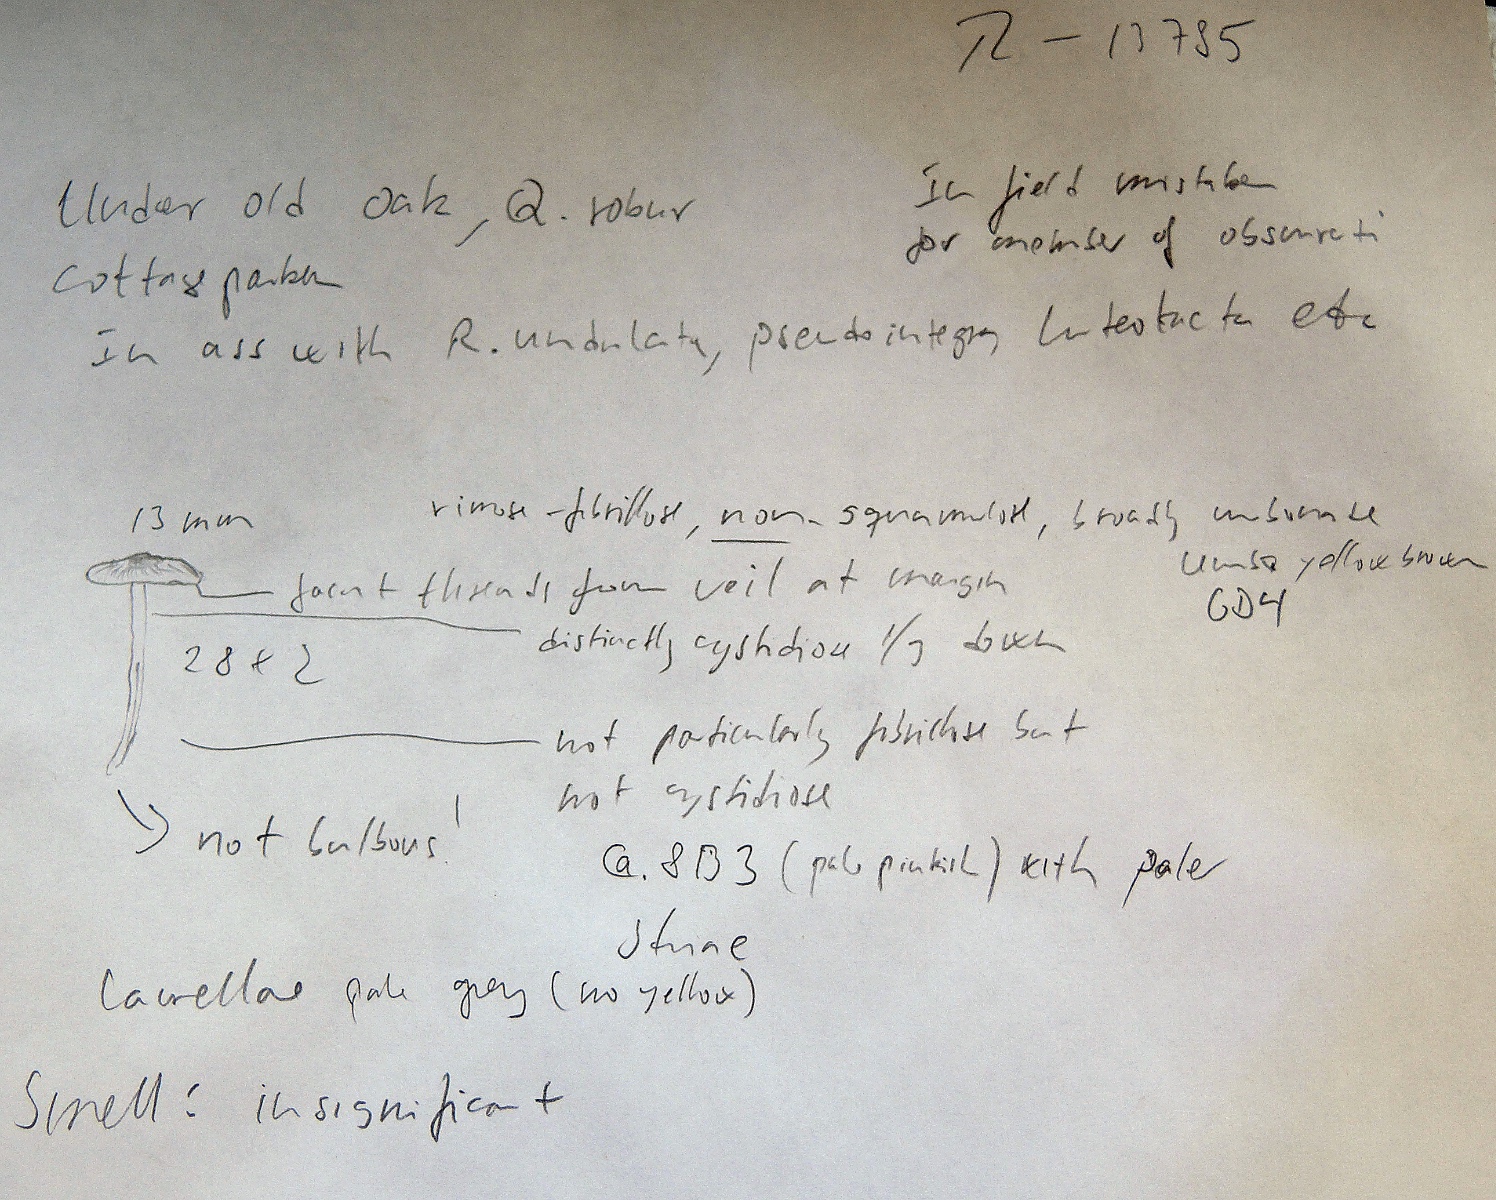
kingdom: Fungi
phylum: Basidiomycota
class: Agaricomycetes
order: Agaricales
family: Inocybaceae
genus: Inocybe
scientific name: Inocybe putilla
